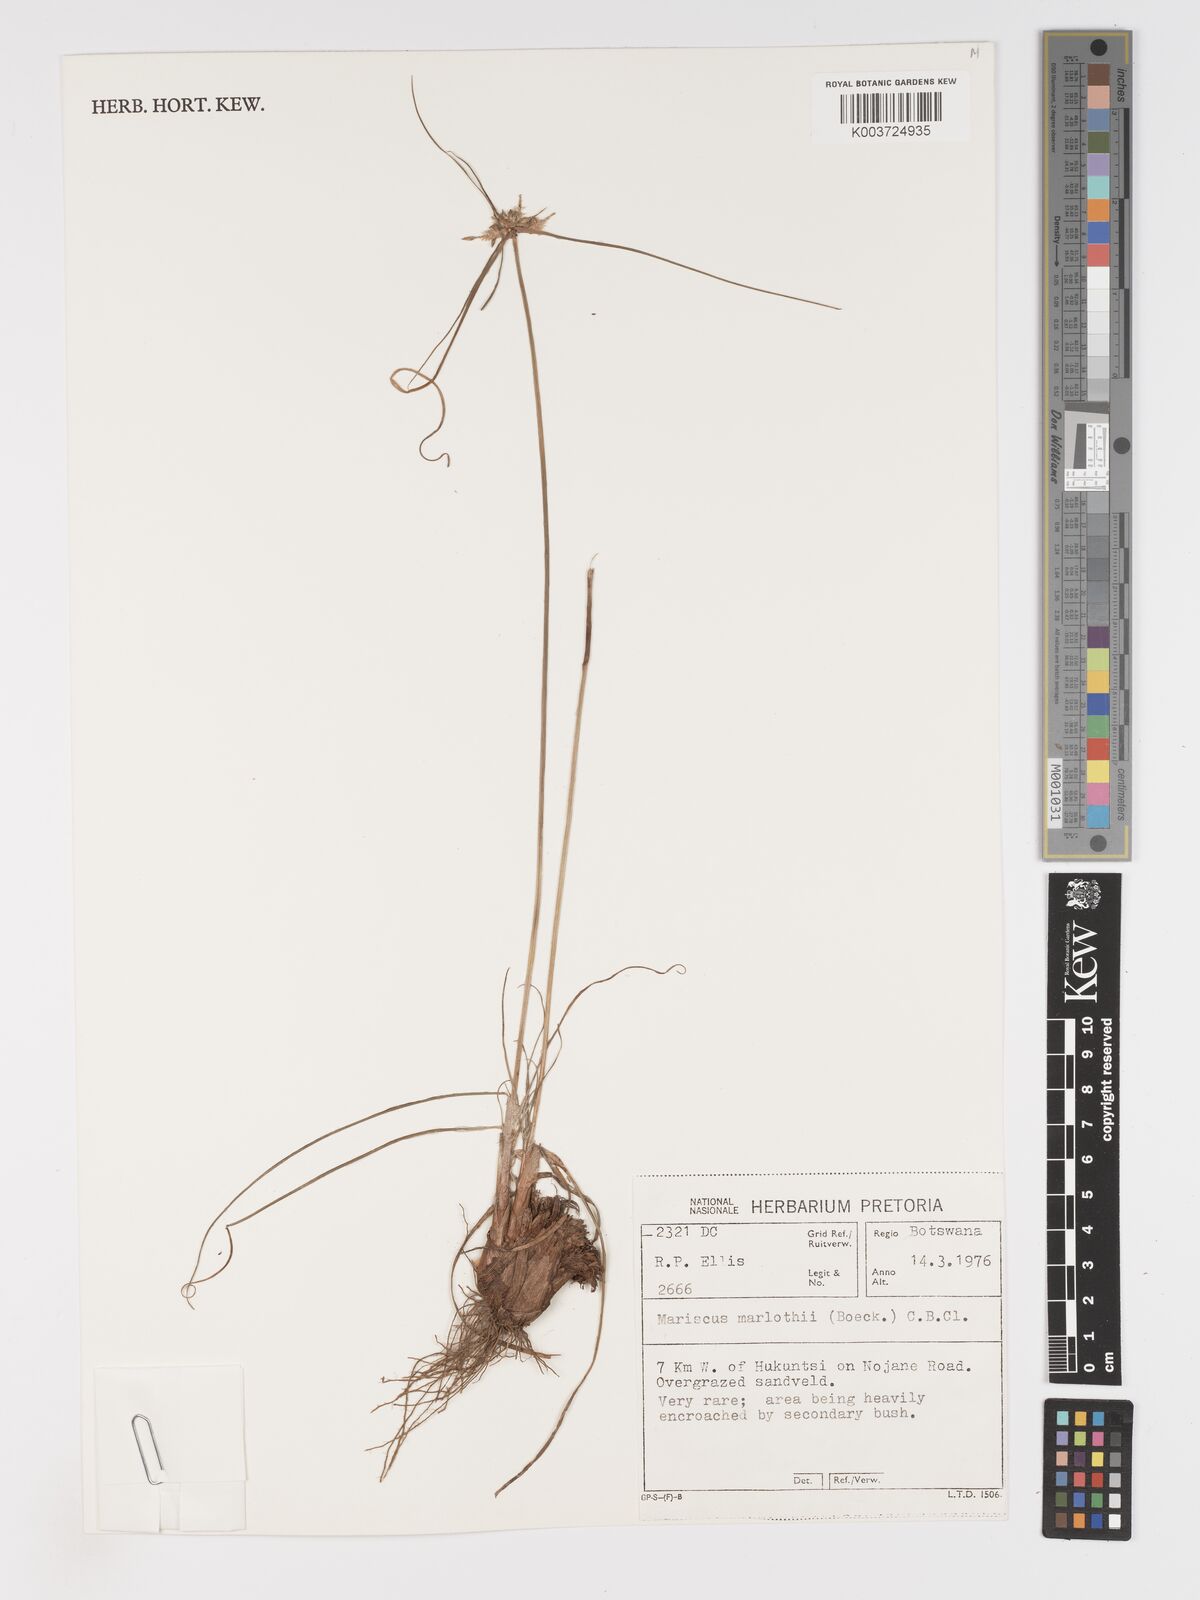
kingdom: Plantae
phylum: Tracheophyta
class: Liliopsida
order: Poales
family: Cyperaceae
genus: Cyperus
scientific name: Cyperus marlothii
